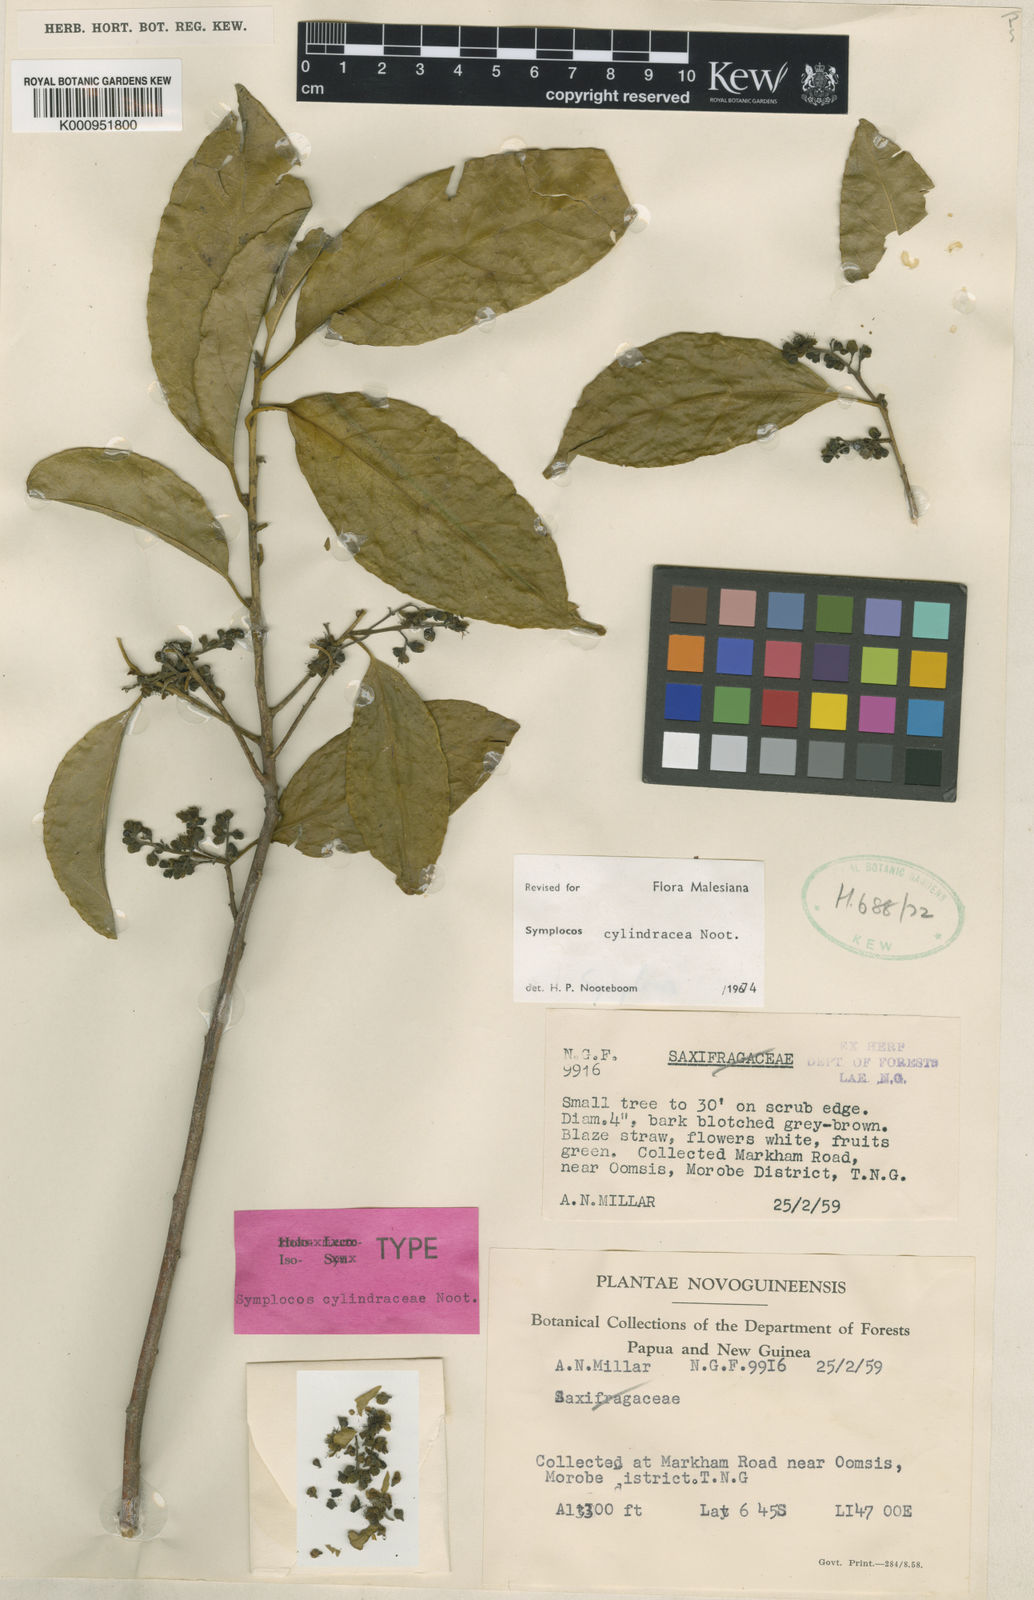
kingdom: Plantae
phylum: Tracheophyta
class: Magnoliopsida
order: Ericales
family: Symplocaceae
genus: Symplocos
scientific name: Symplocos cylindracea
